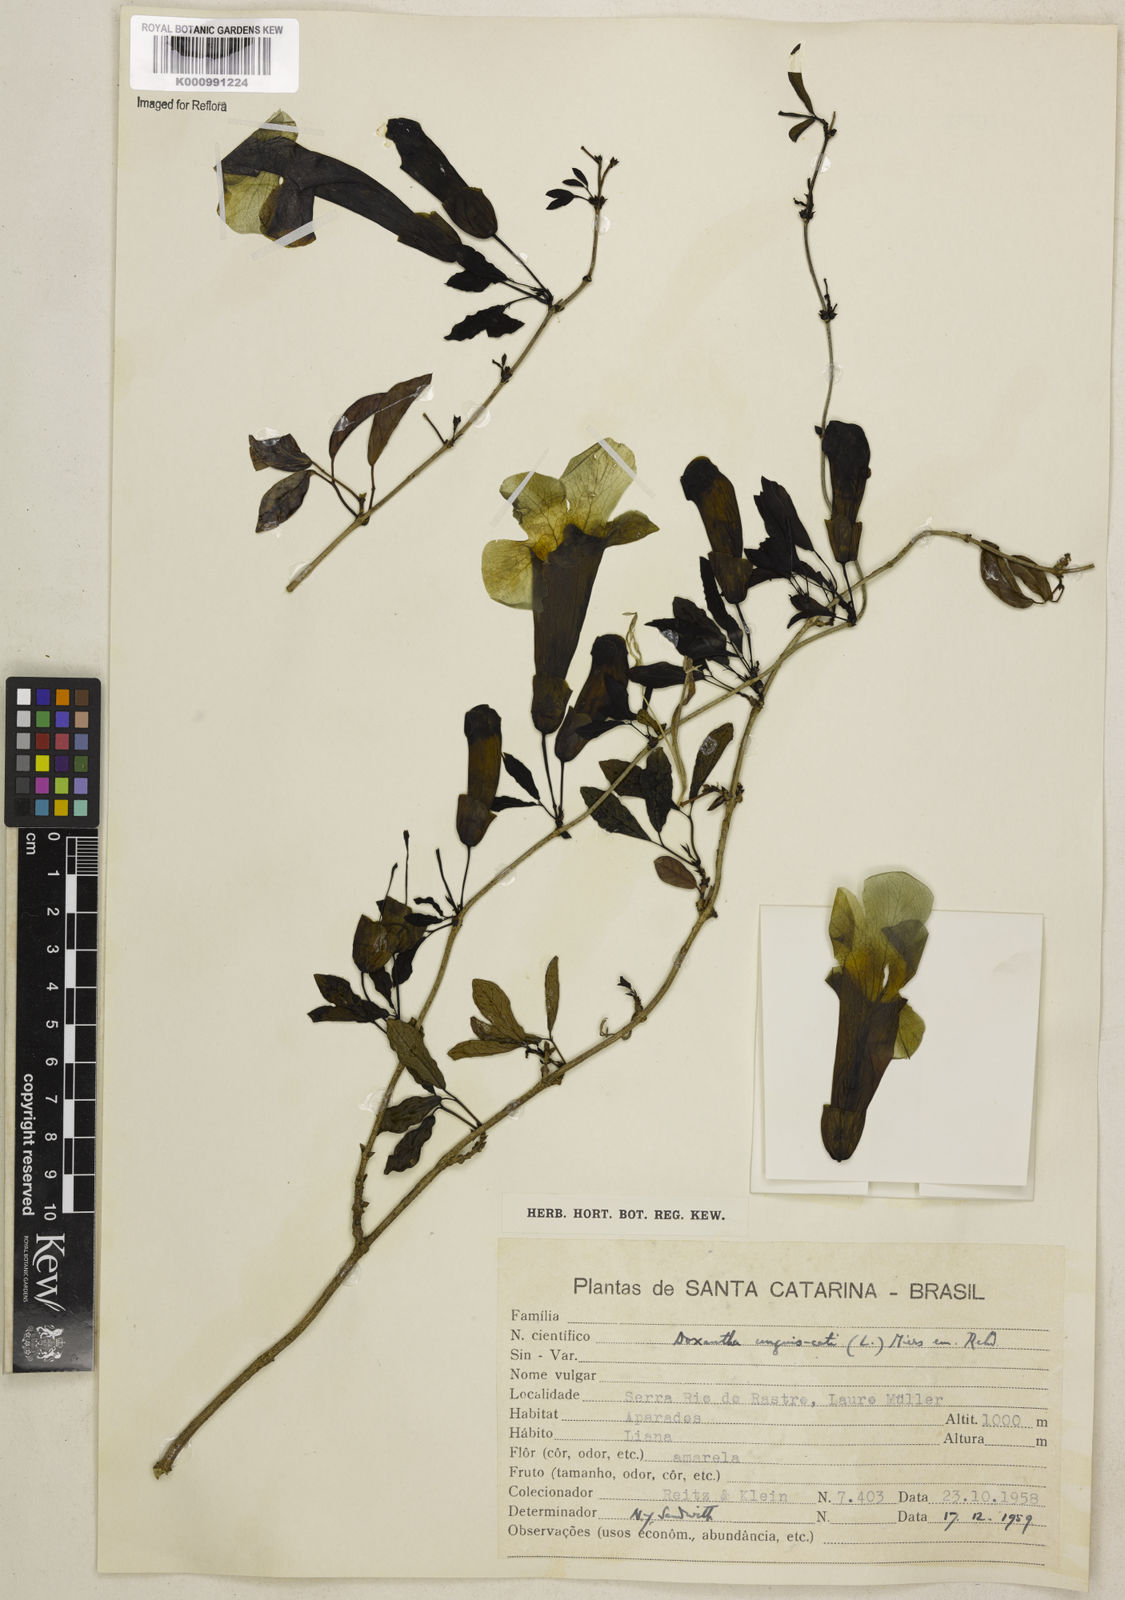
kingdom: Plantae
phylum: Tracheophyta
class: Magnoliopsida
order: Lamiales
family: Bignoniaceae
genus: Dolichandra
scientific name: Dolichandra unguis-cati
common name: Catclaw vine
